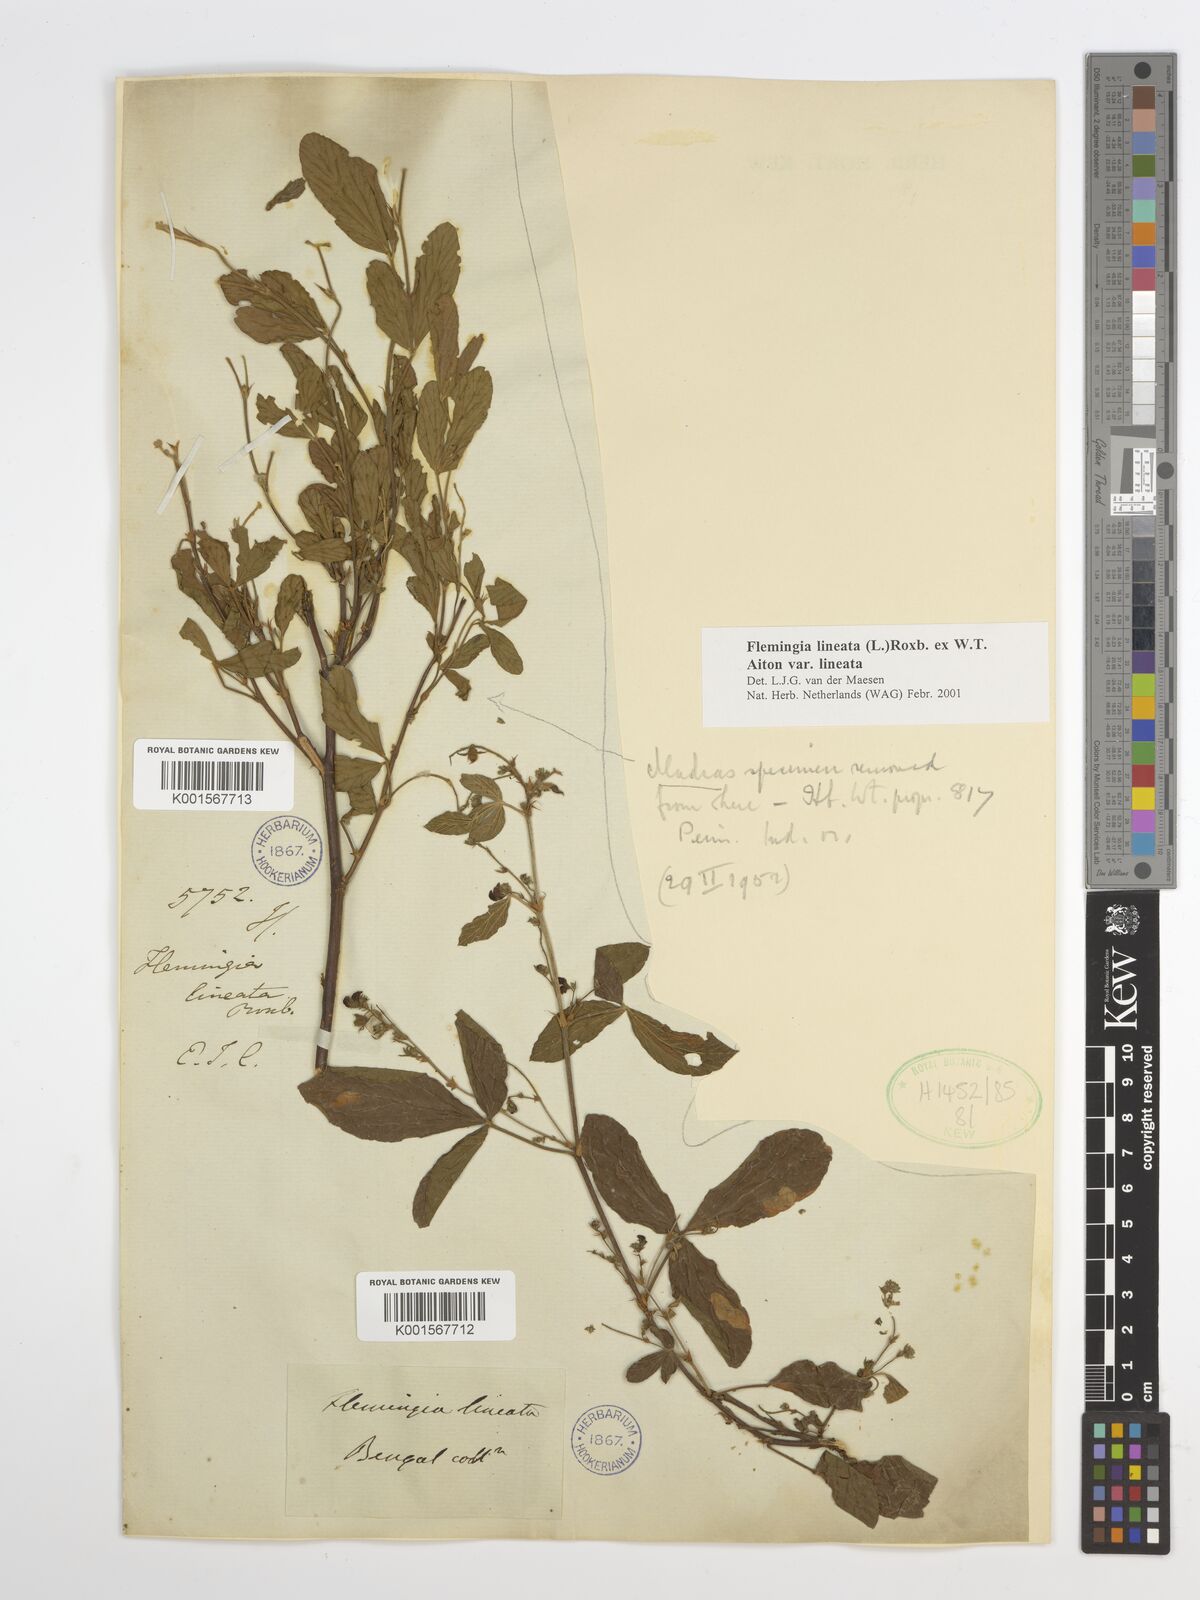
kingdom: Plantae
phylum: Tracheophyta
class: Magnoliopsida
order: Fabales
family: Fabaceae
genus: Flemingia
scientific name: Flemingia lineata
